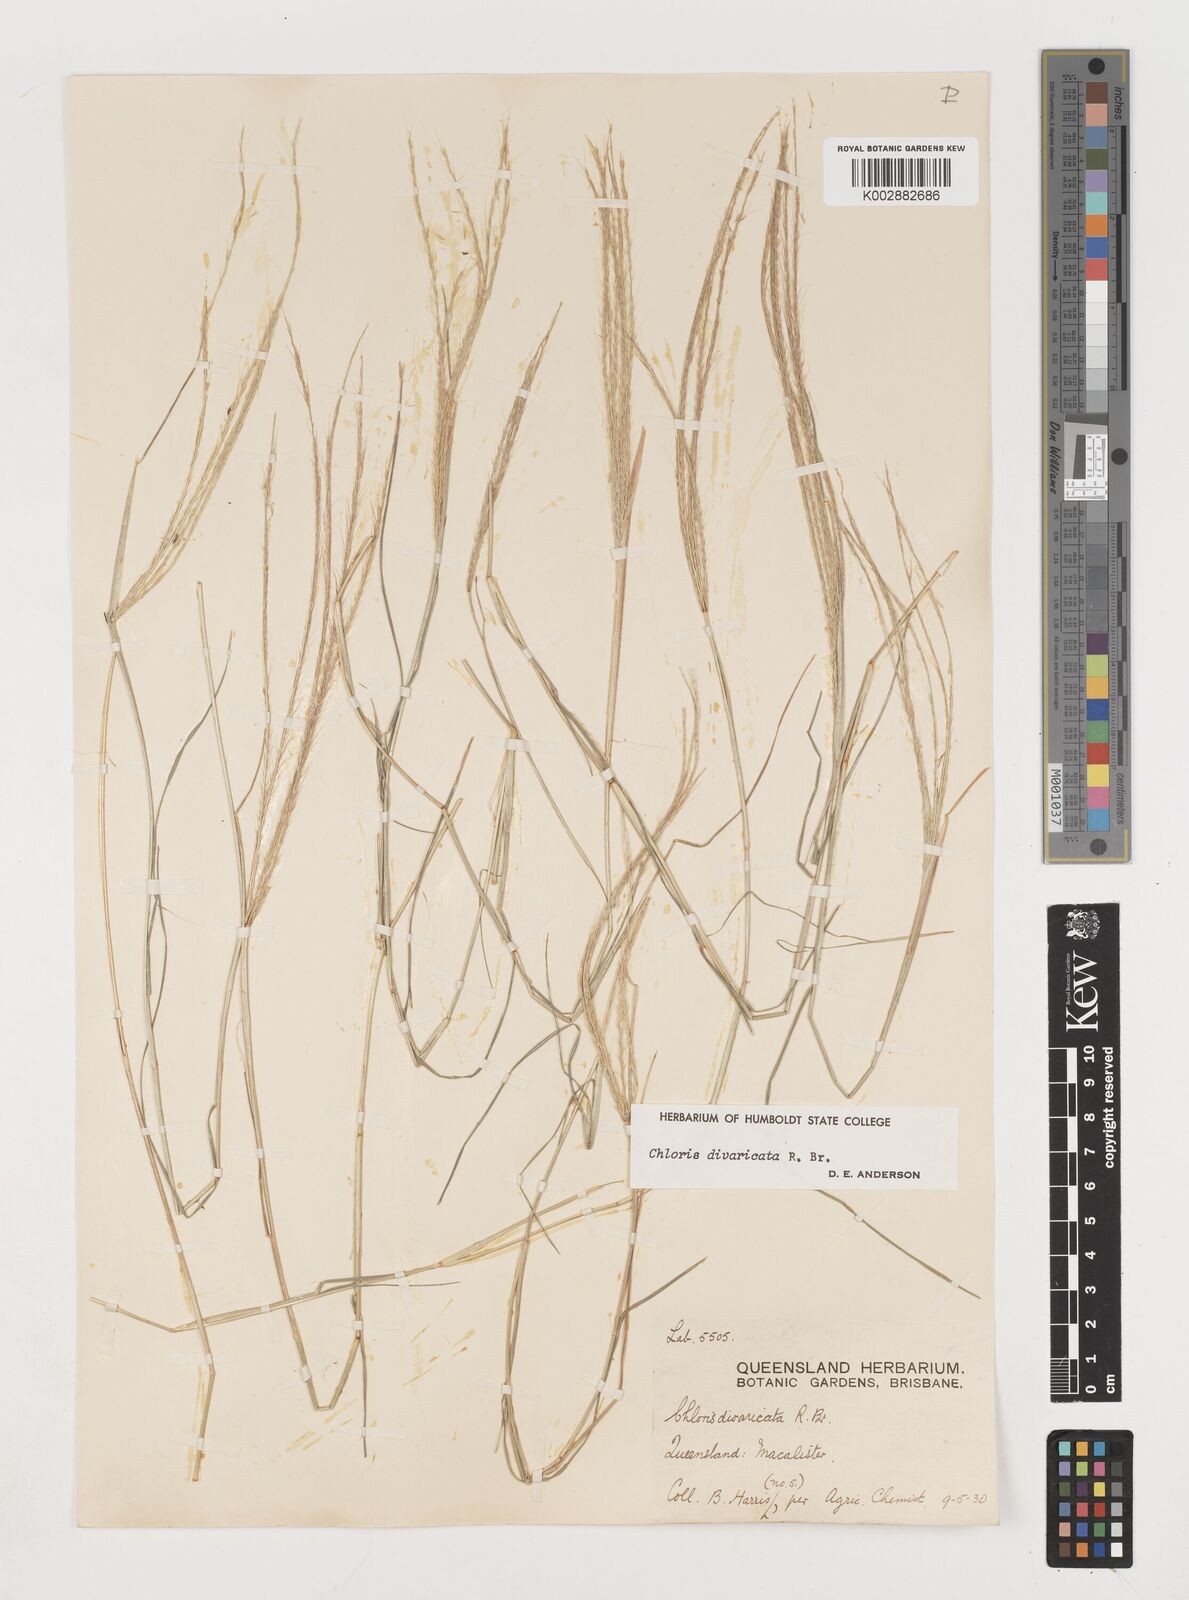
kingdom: Plantae
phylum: Tracheophyta
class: Liliopsida
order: Poales
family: Poaceae
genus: Chloris
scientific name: Chloris divaricata
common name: Spreading windmill grass
